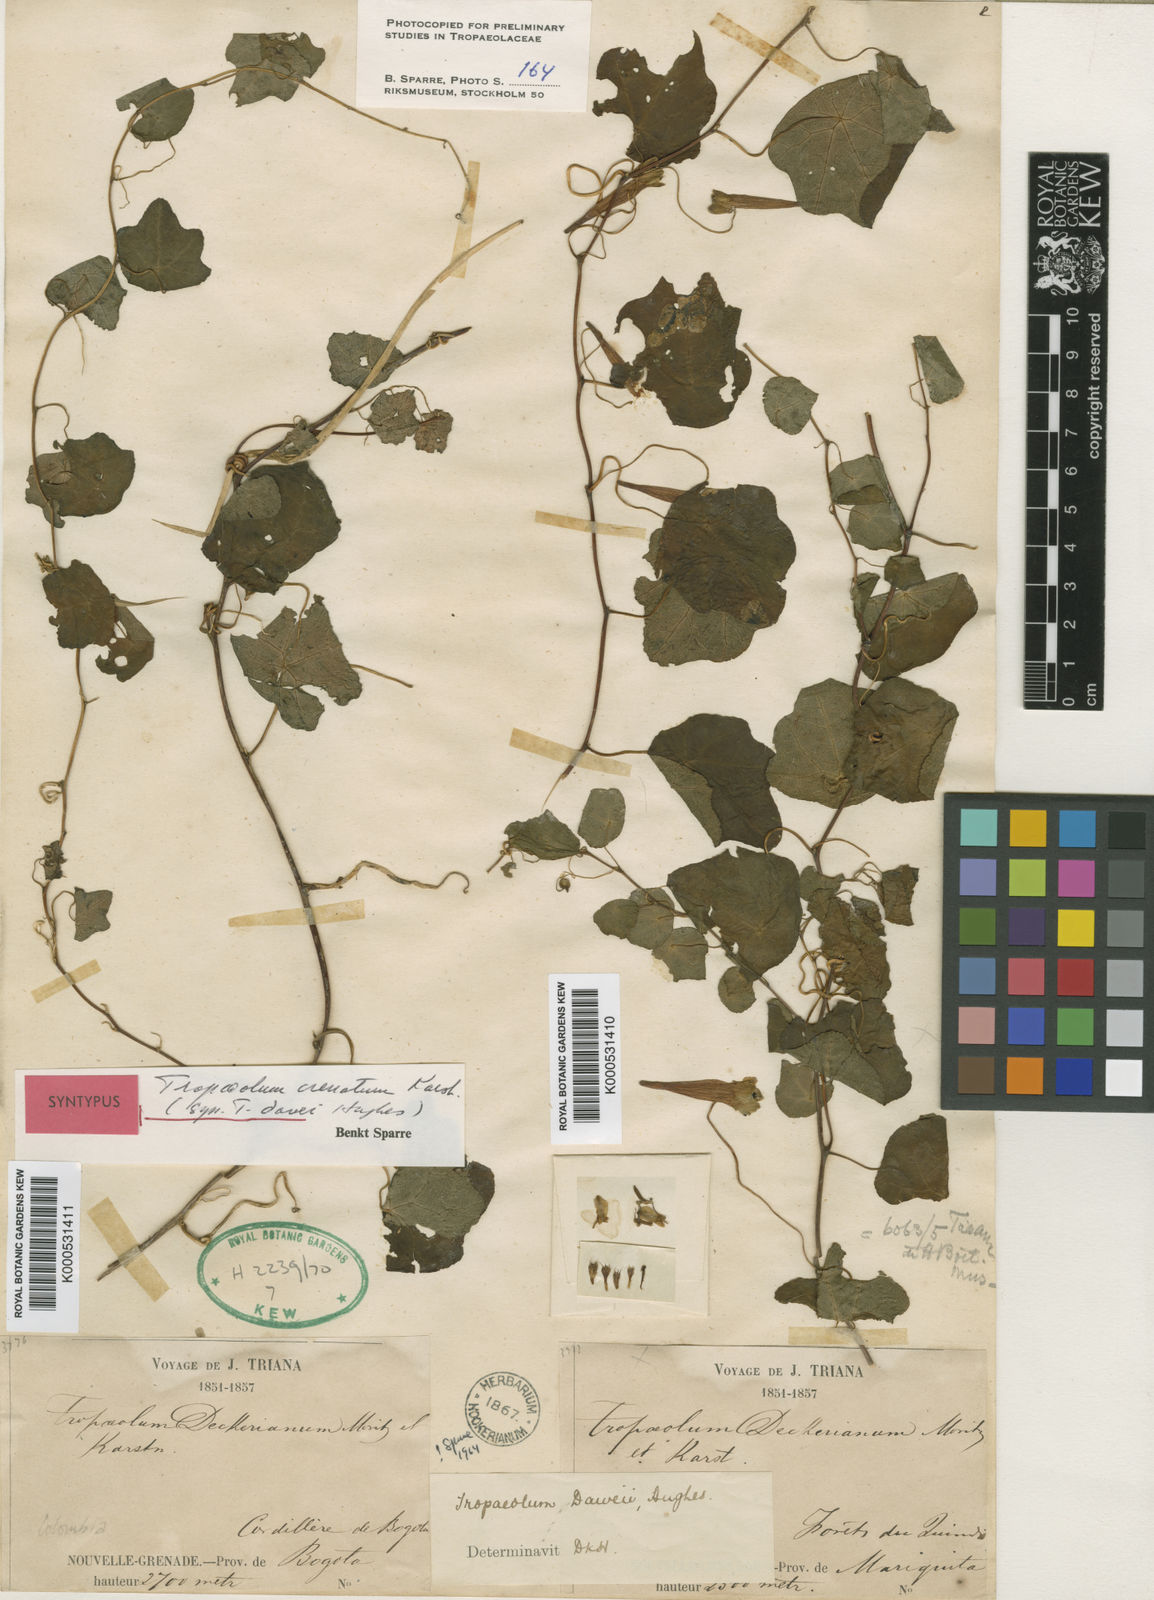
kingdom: Plantae
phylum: Tracheophyta
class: Magnoliopsida
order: Brassicales
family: Tropaeolaceae
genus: Tropaeolum
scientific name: Tropaeolum trilobum
